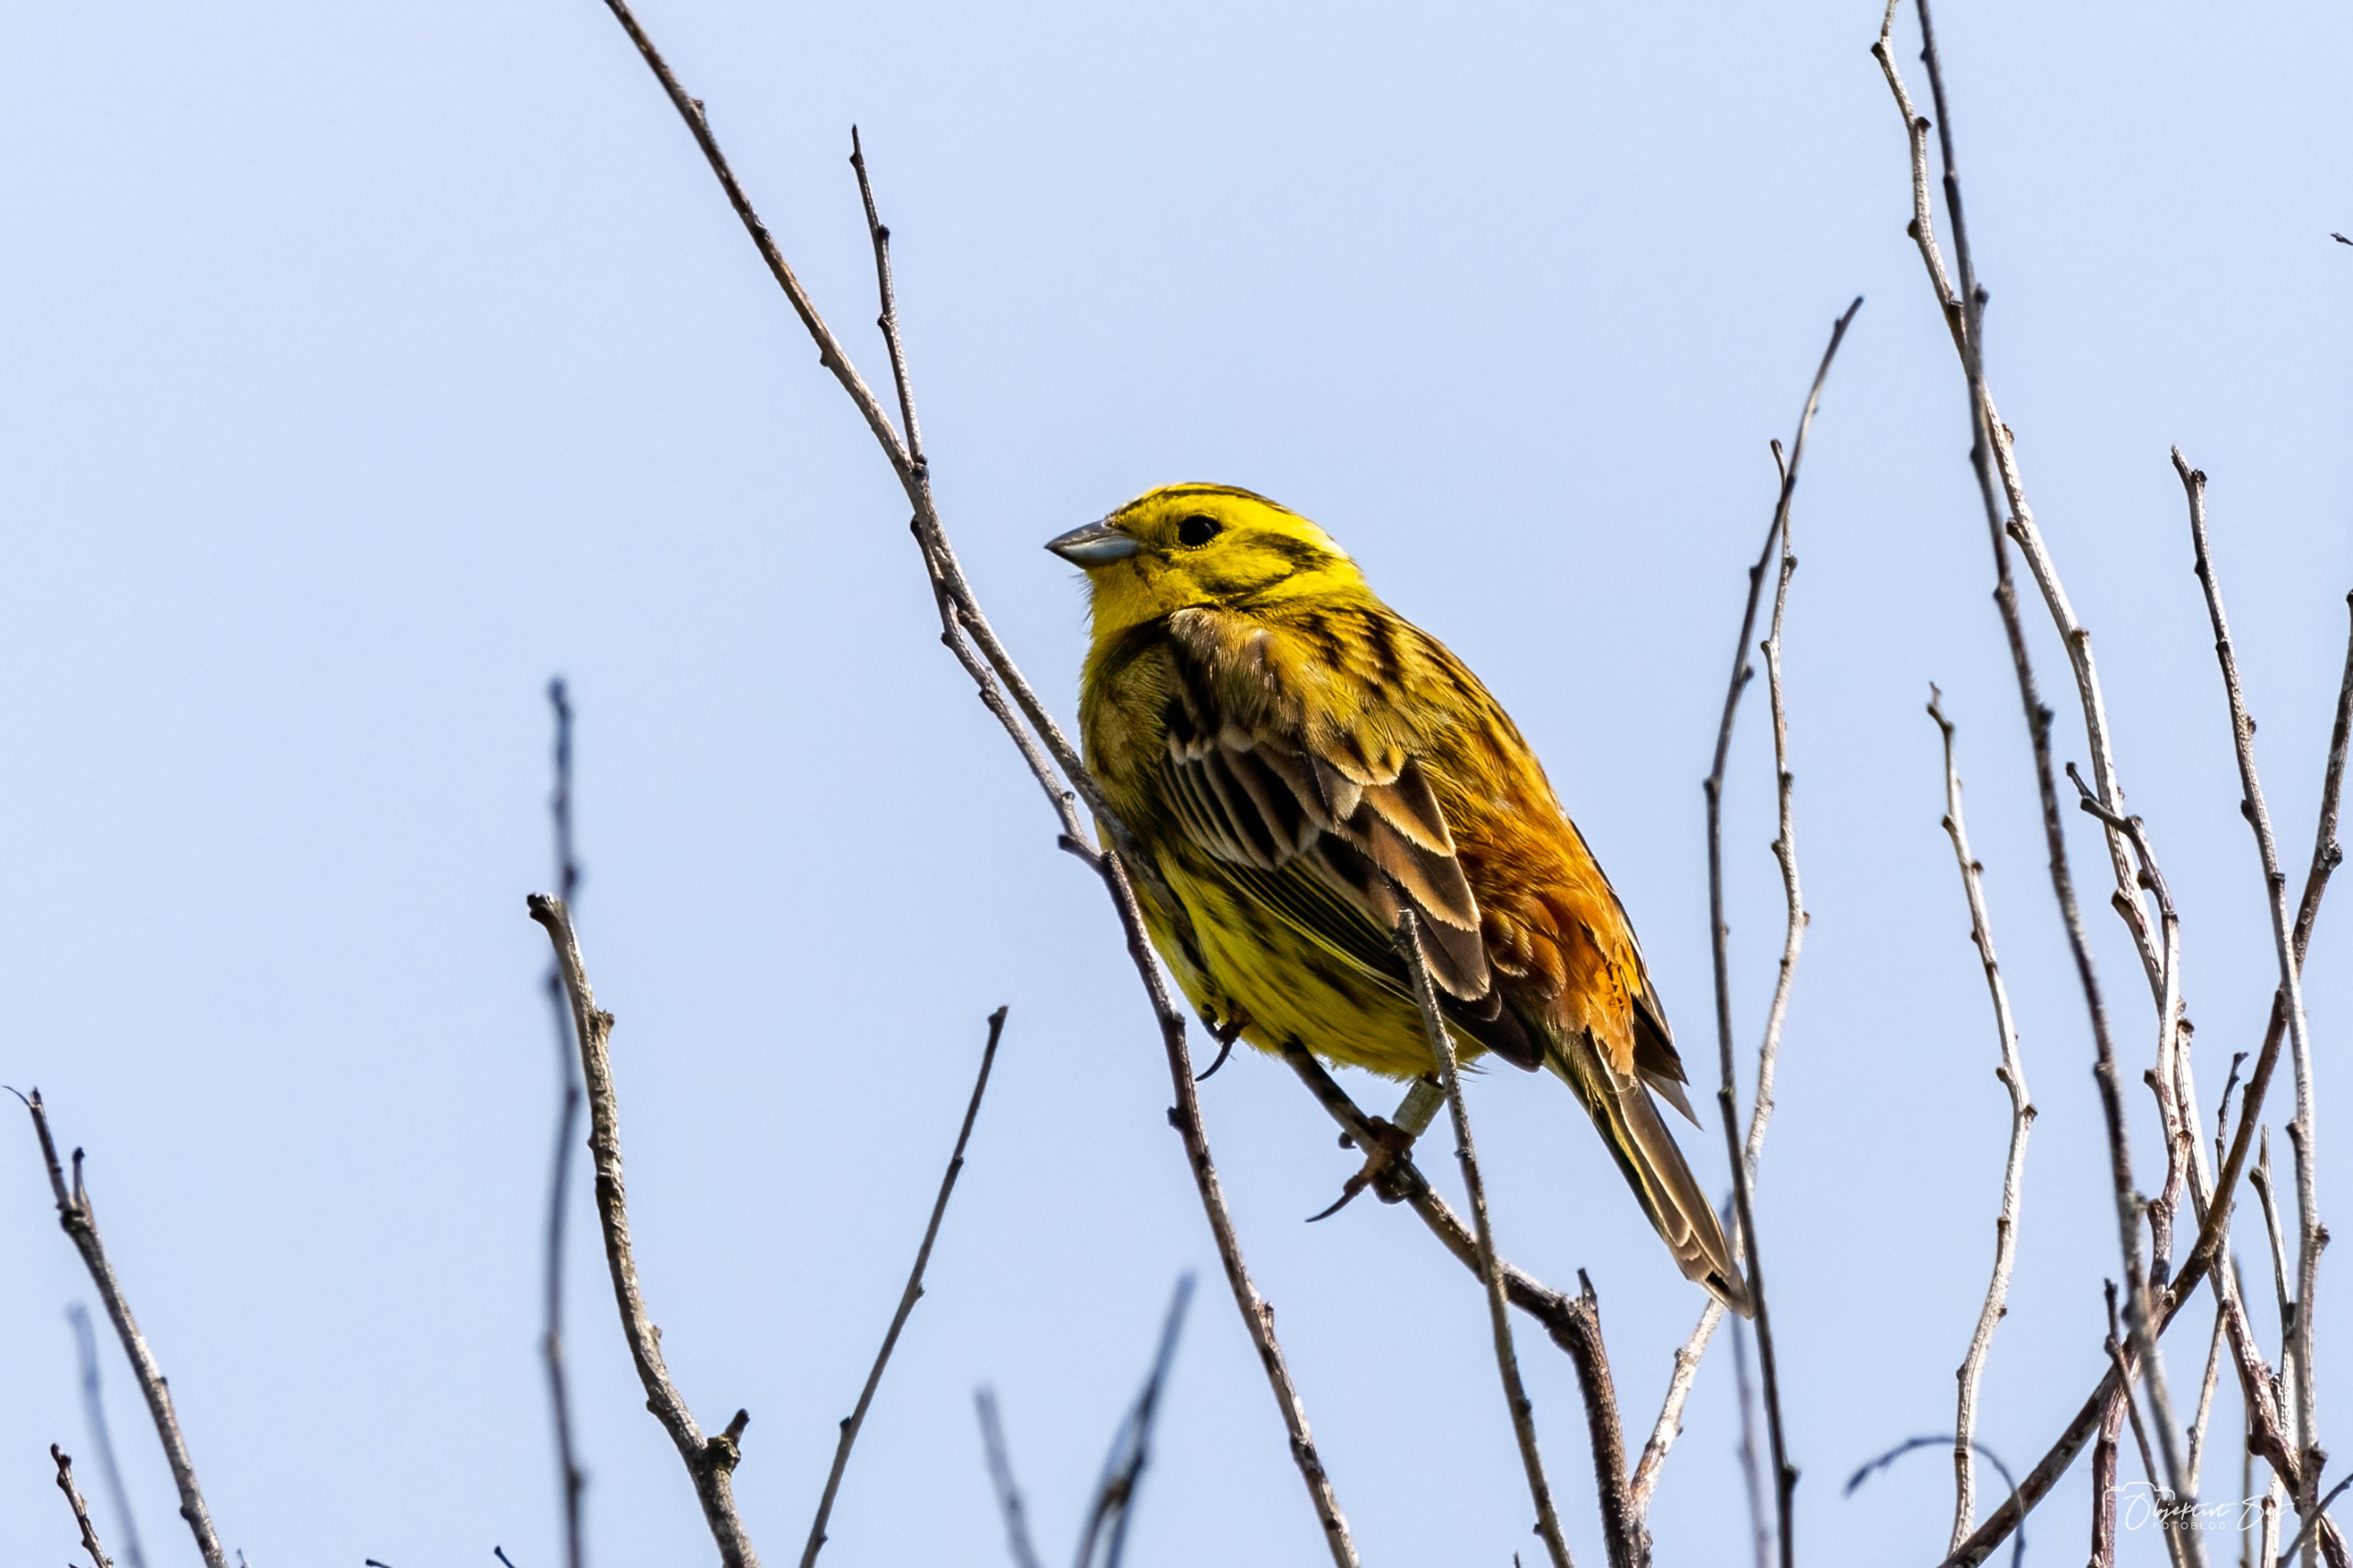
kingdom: Animalia
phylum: Chordata
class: Aves
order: Passeriformes
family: Emberizidae
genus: Emberiza
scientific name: Emberiza citrinella
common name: Gulspurv
